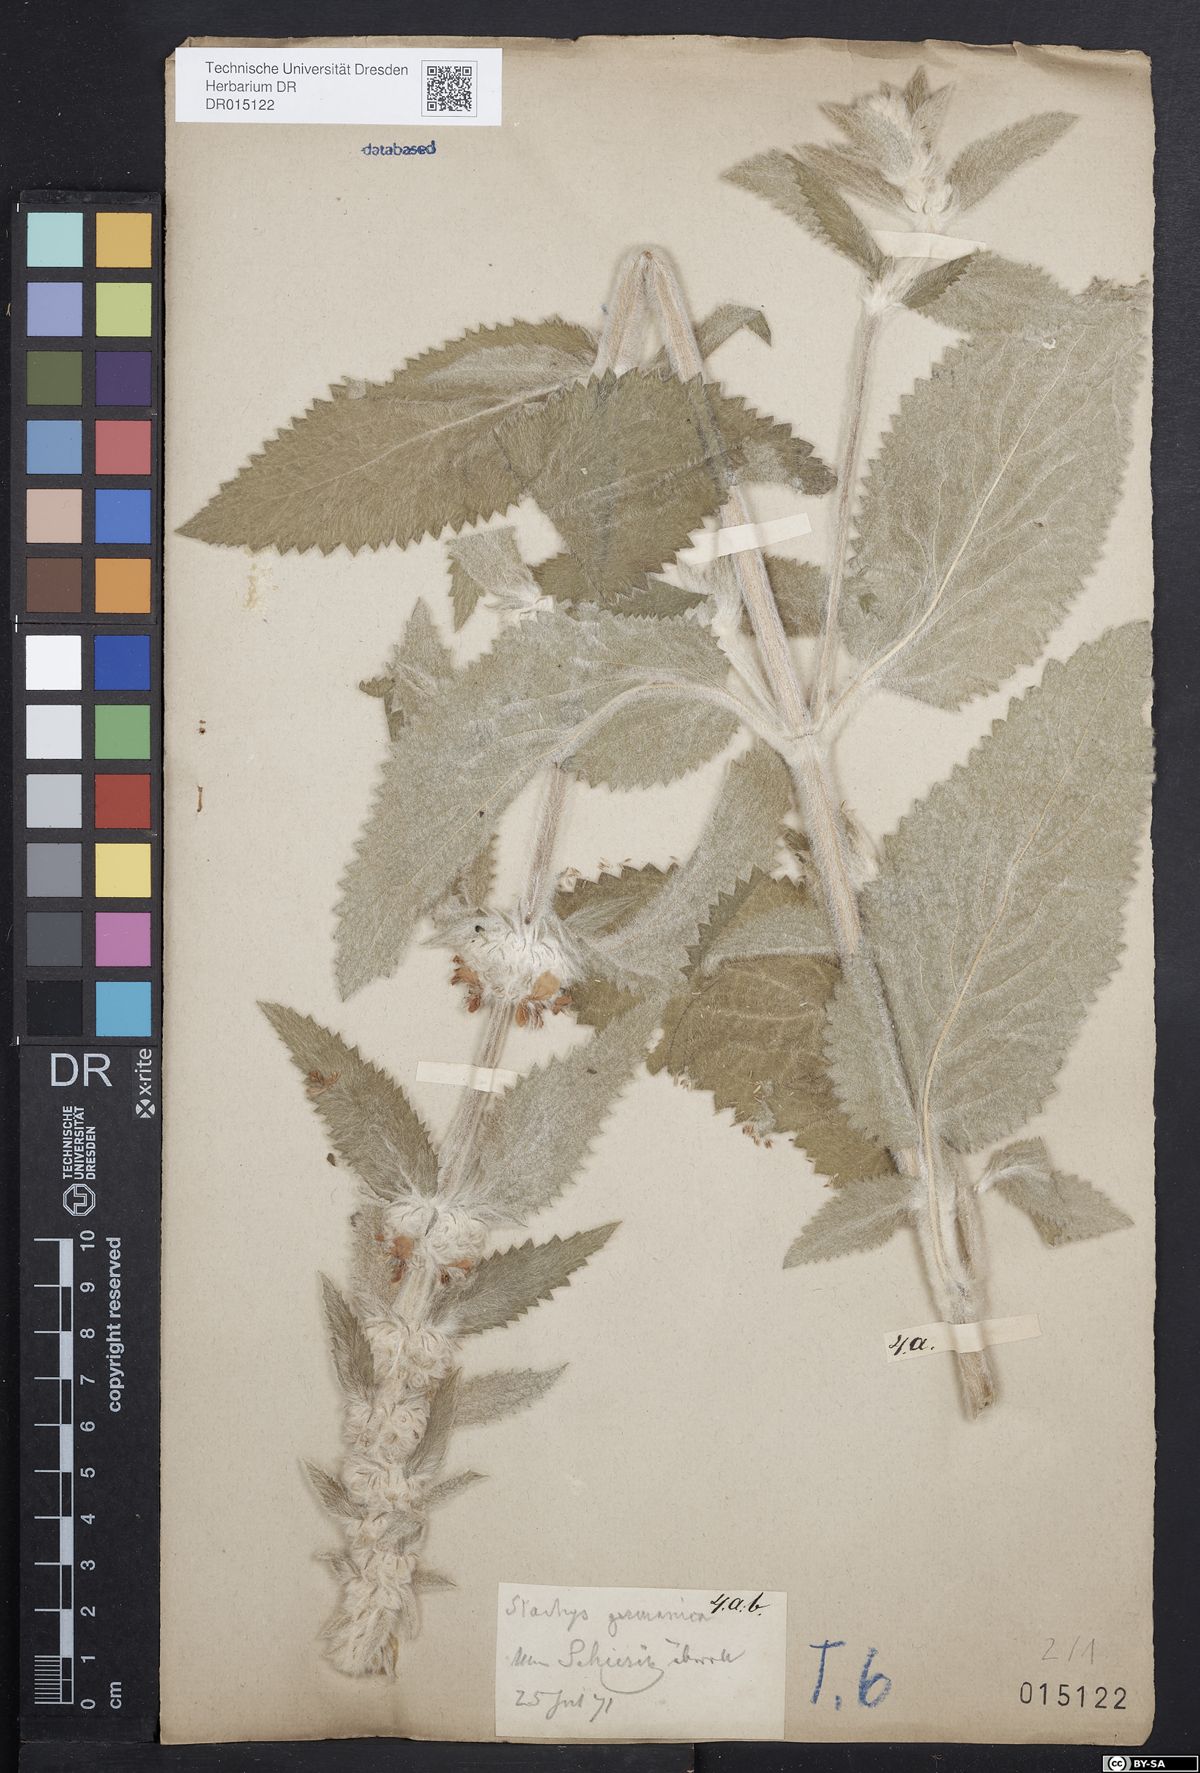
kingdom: Plantae
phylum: Tracheophyta
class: Magnoliopsida
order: Lamiales
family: Lamiaceae
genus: Stachys
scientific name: Stachys germanica
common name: Downy woundwort
